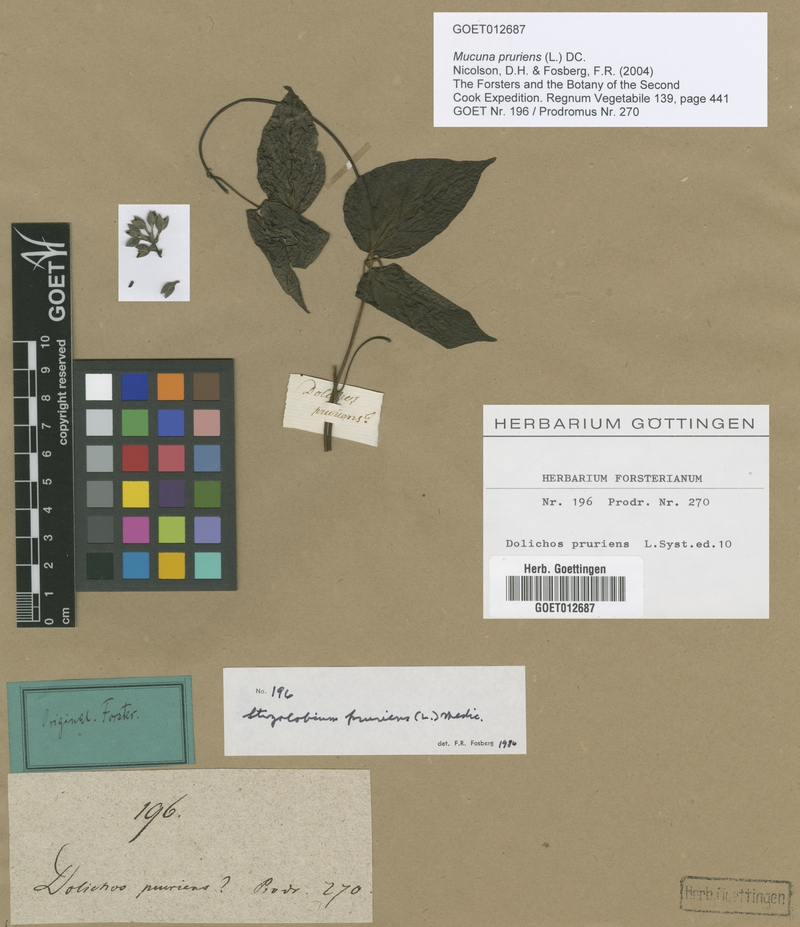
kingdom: Plantae
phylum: Tracheophyta
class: Magnoliopsida
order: Fabales
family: Fabaceae
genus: Mucuna
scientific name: Mucuna pruriens
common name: Cow-itch
